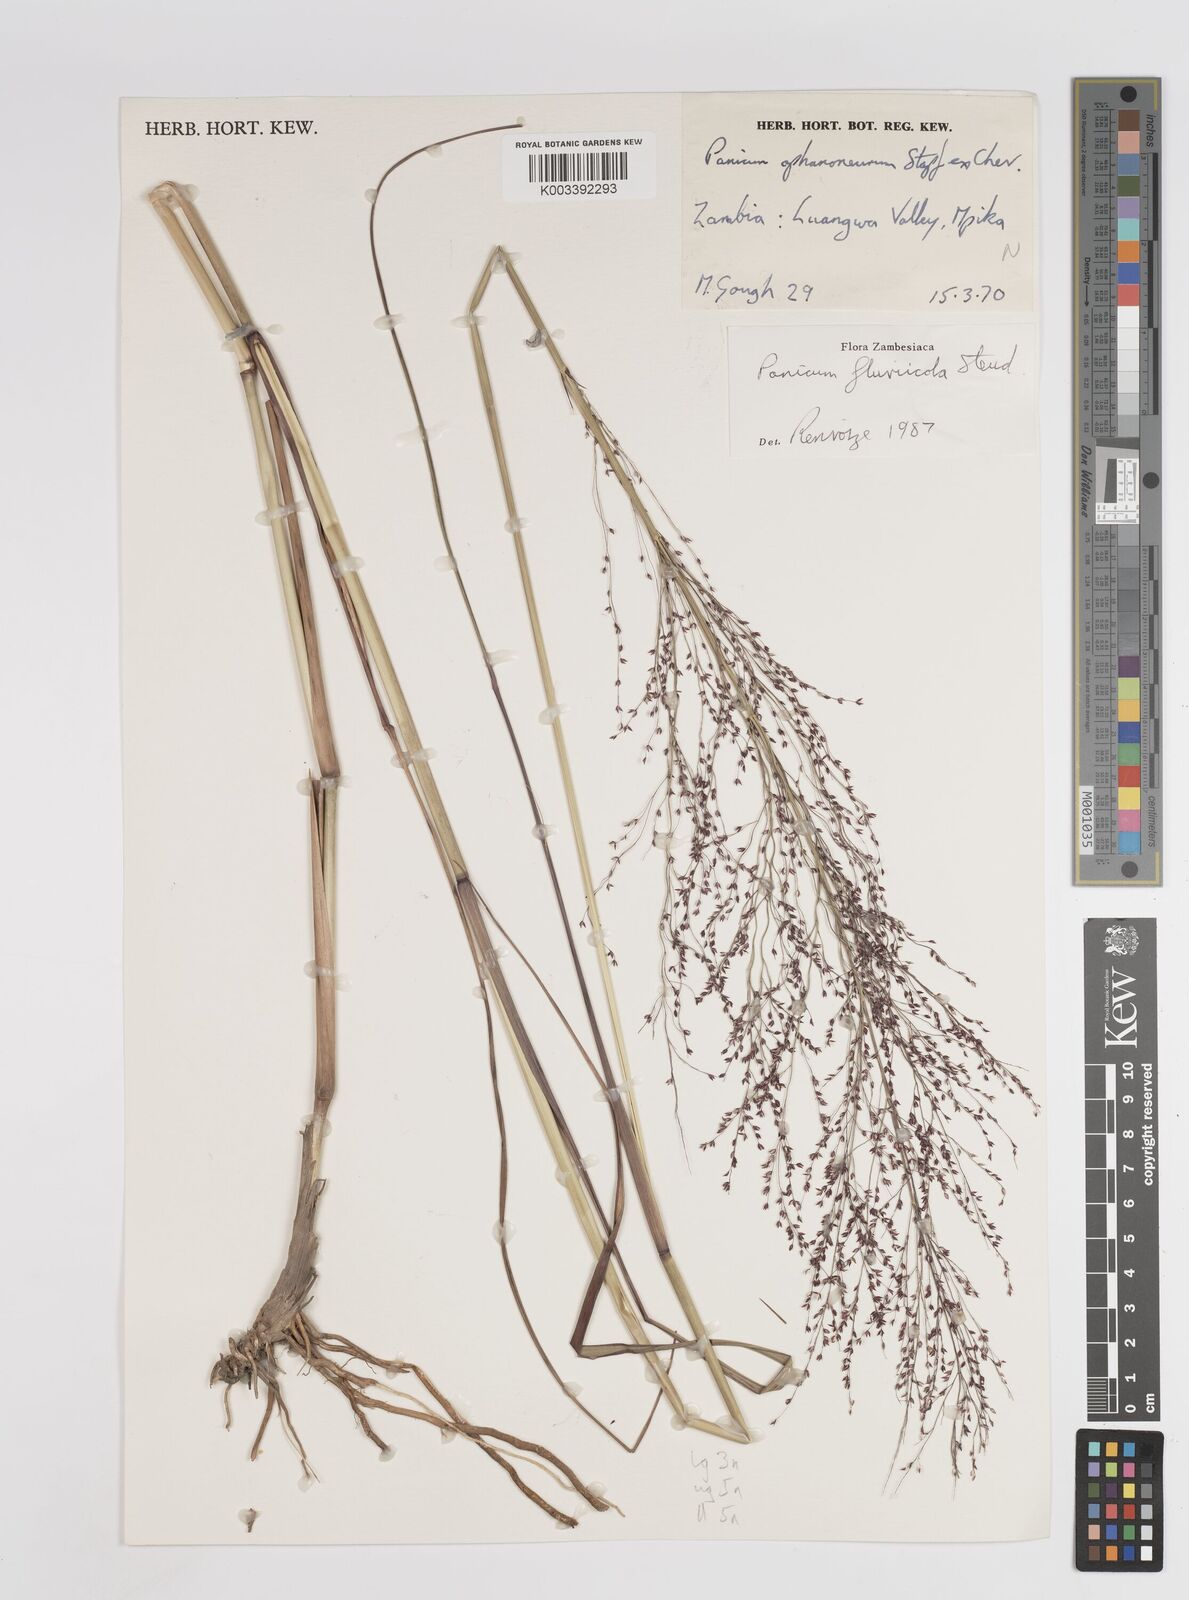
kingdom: Plantae
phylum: Tracheophyta
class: Liliopsida
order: Poales
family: Poaceae
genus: Panicum
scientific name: Panicum fluviicola
